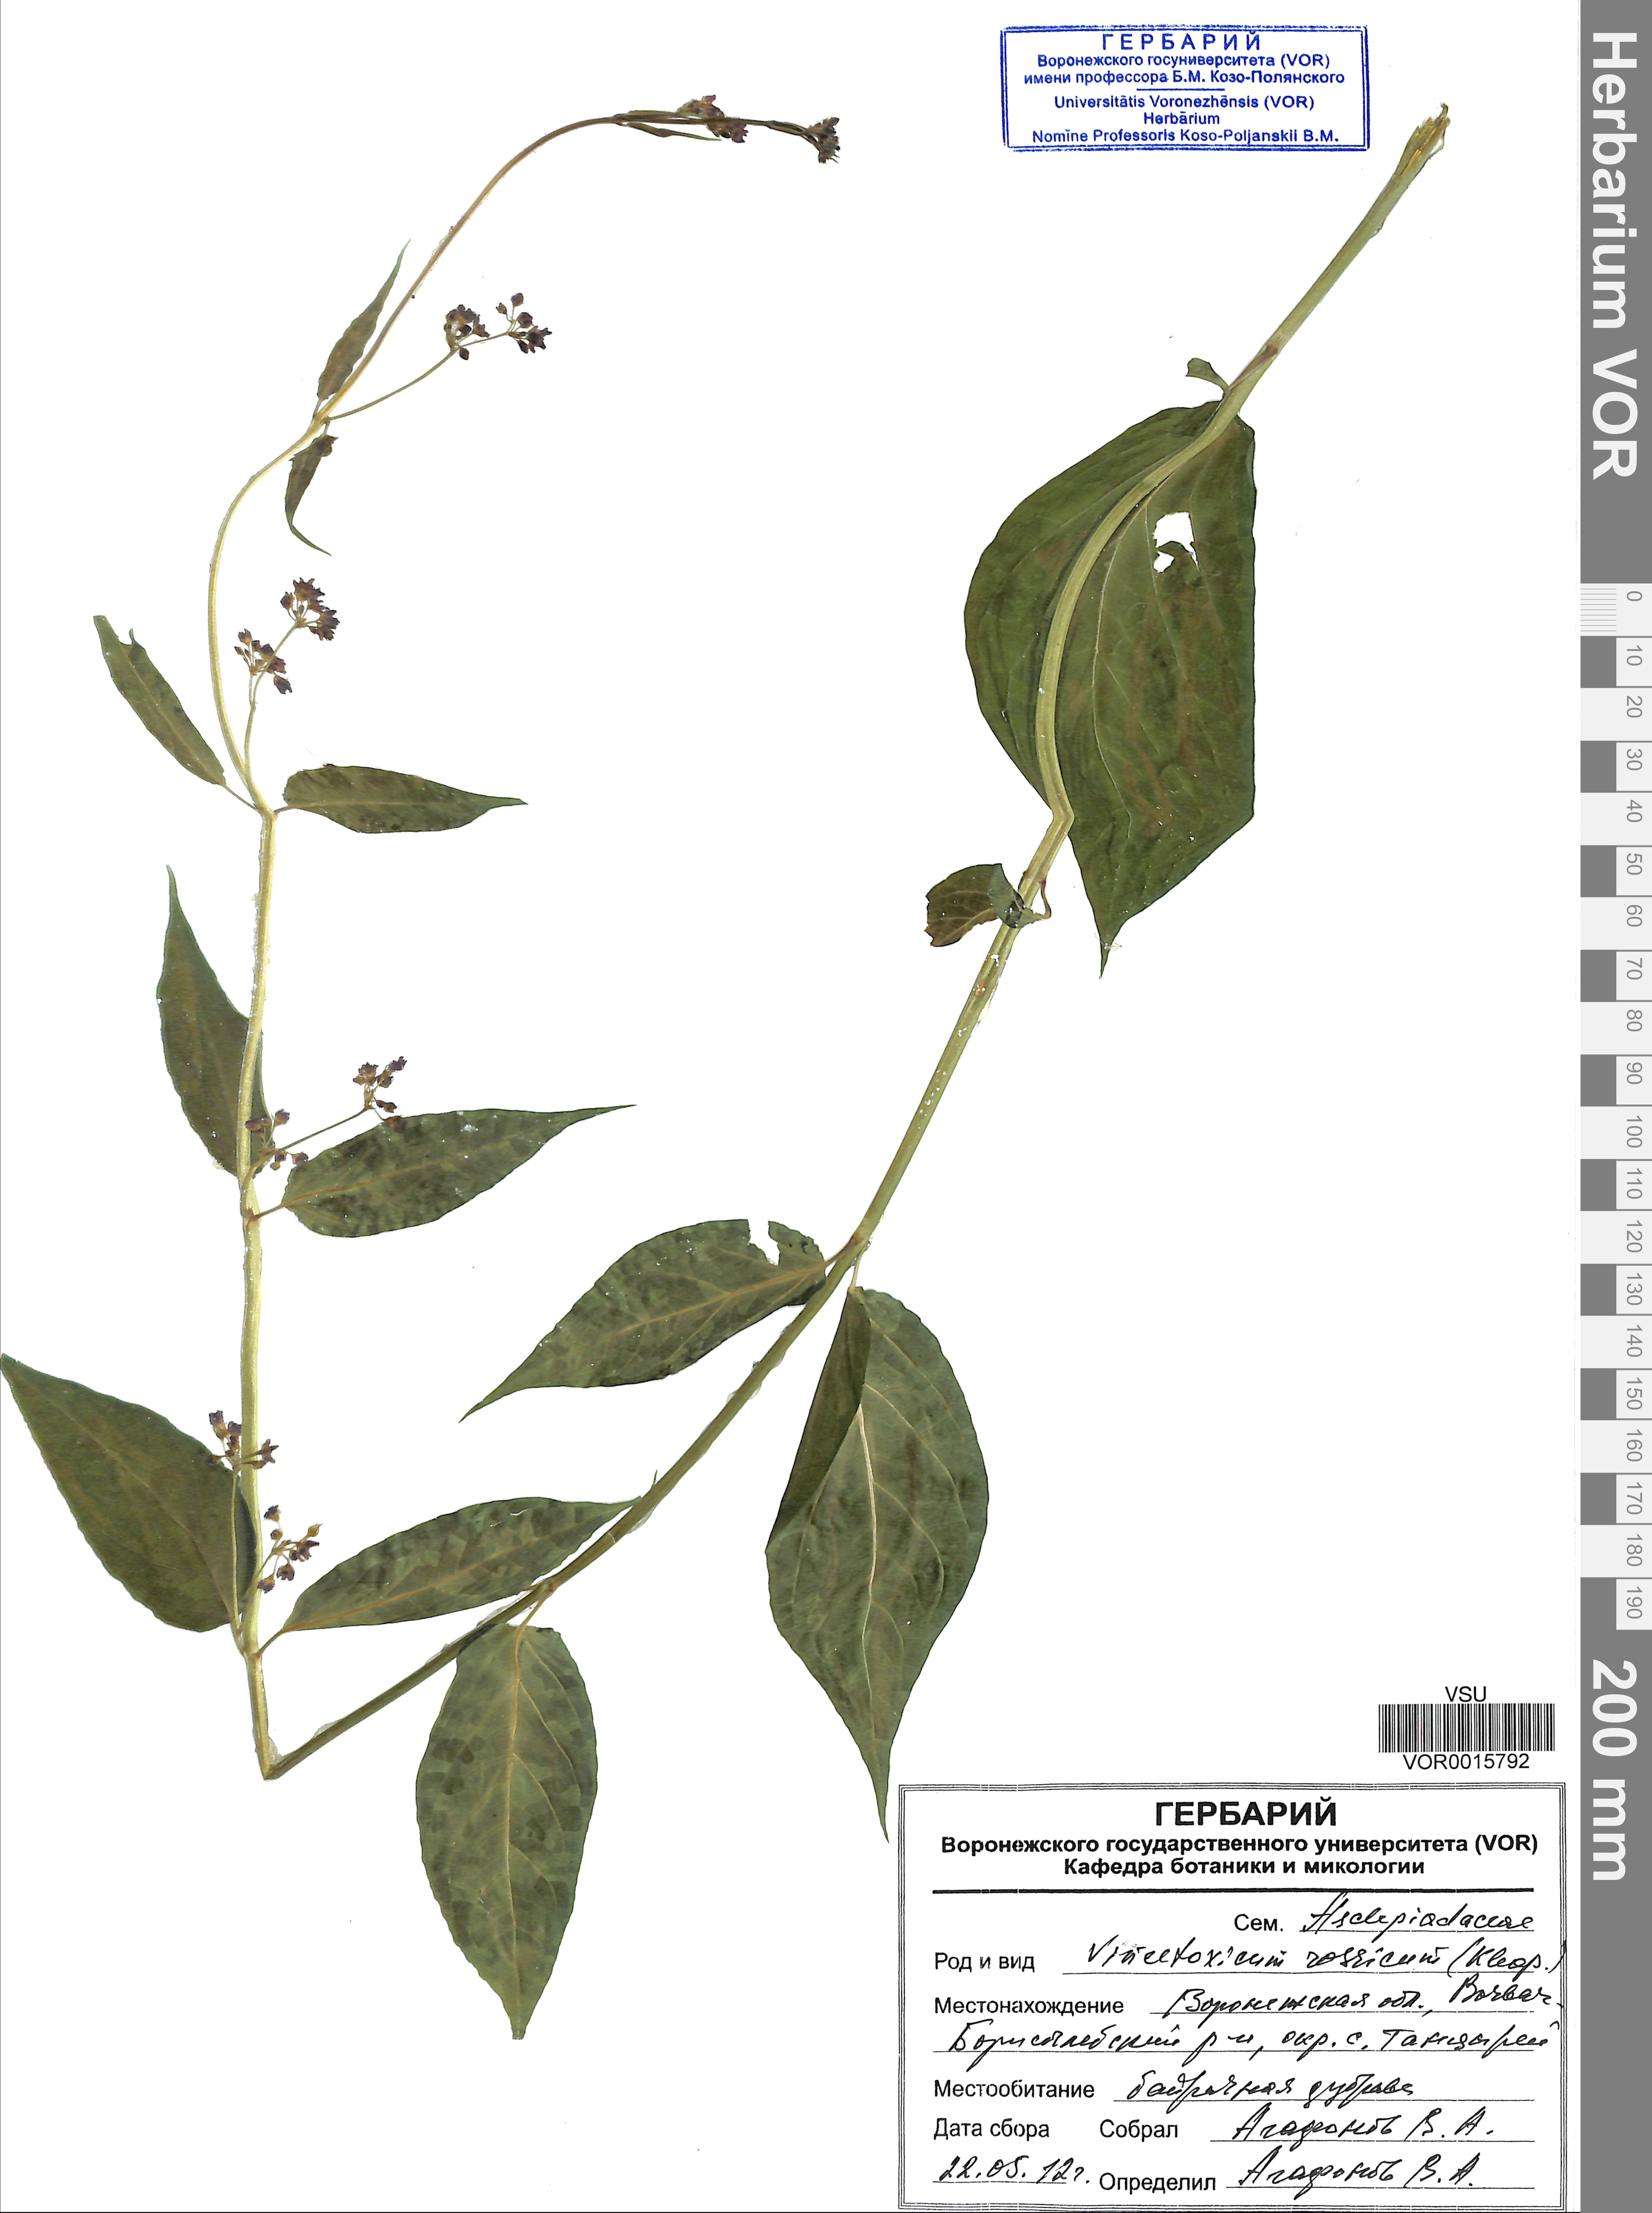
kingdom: Plantae
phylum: Tracheophyta
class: Magnoliopsida
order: Gentianales
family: Apocynaceae
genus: Vincetoxicum
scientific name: Vincetoxicum rossicum
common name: Dog-strangling vine
